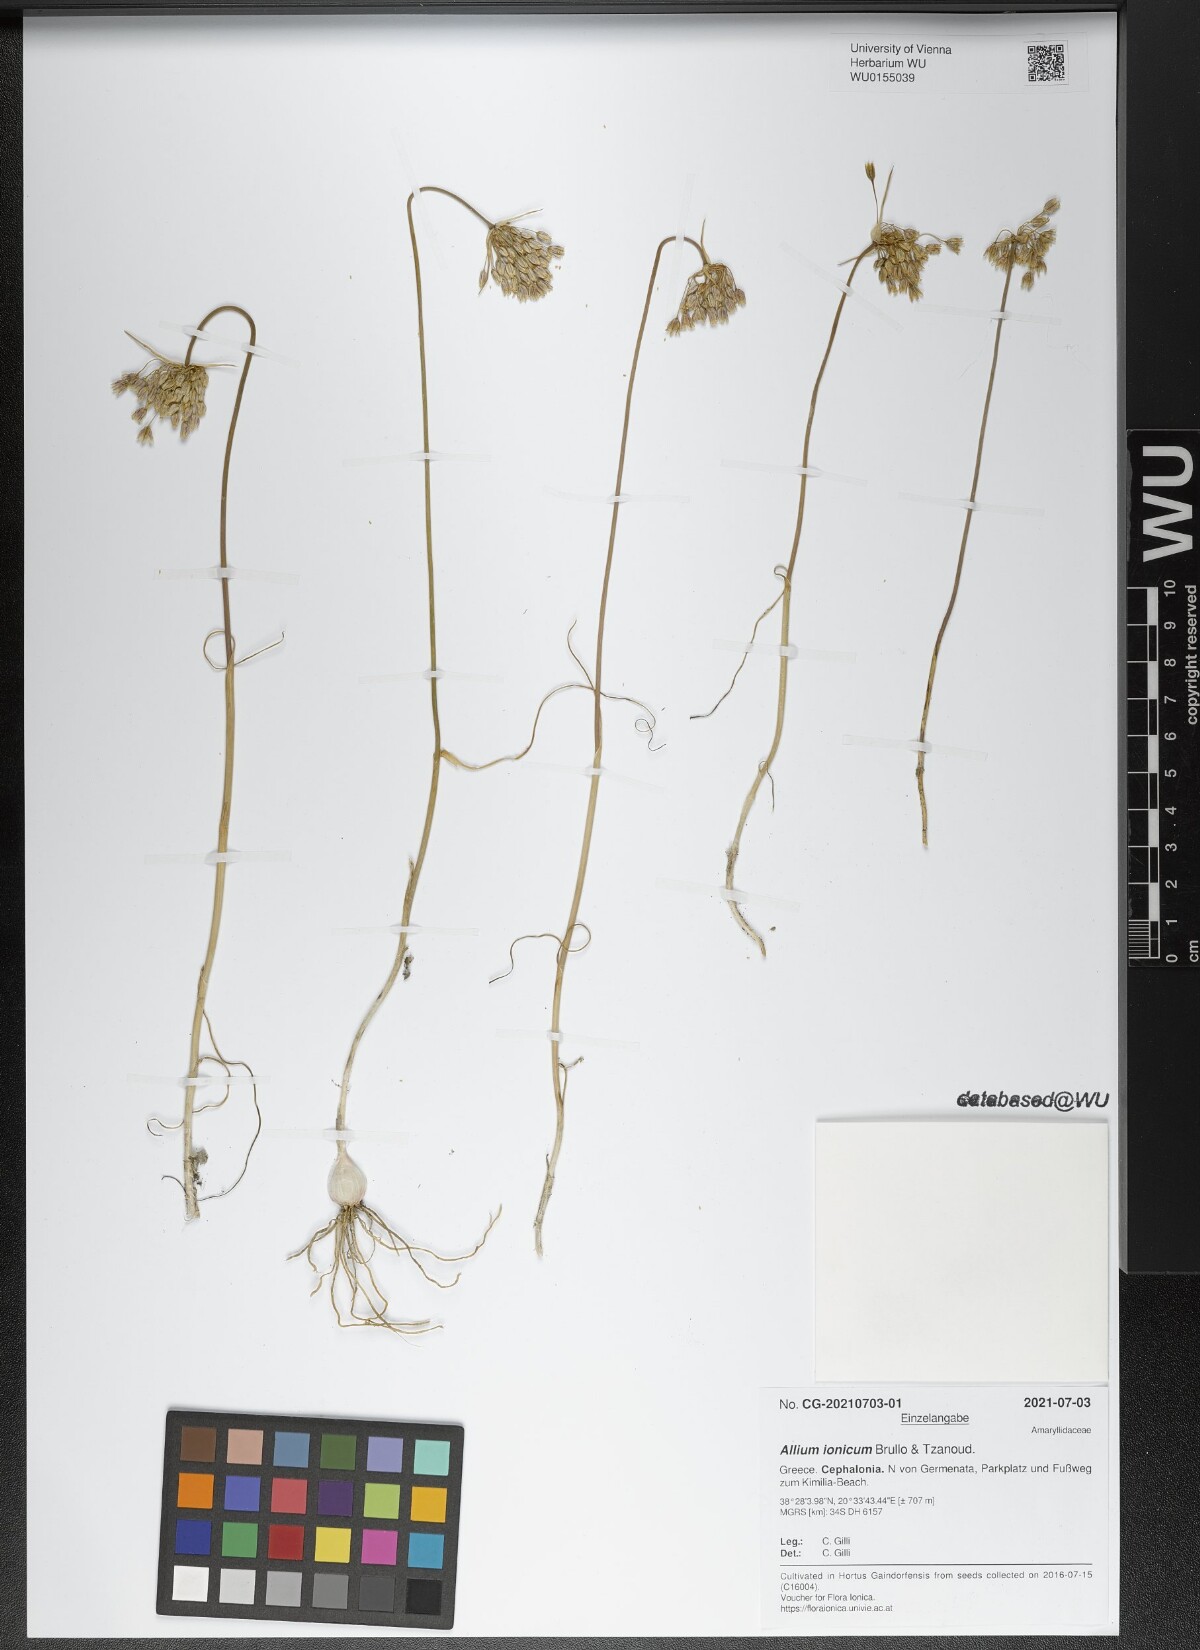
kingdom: Plantae
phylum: Tracheophyta
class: Liliopsida
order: Asparagales
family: Amaryllidaceae
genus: Allium
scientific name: Allium ionicum
